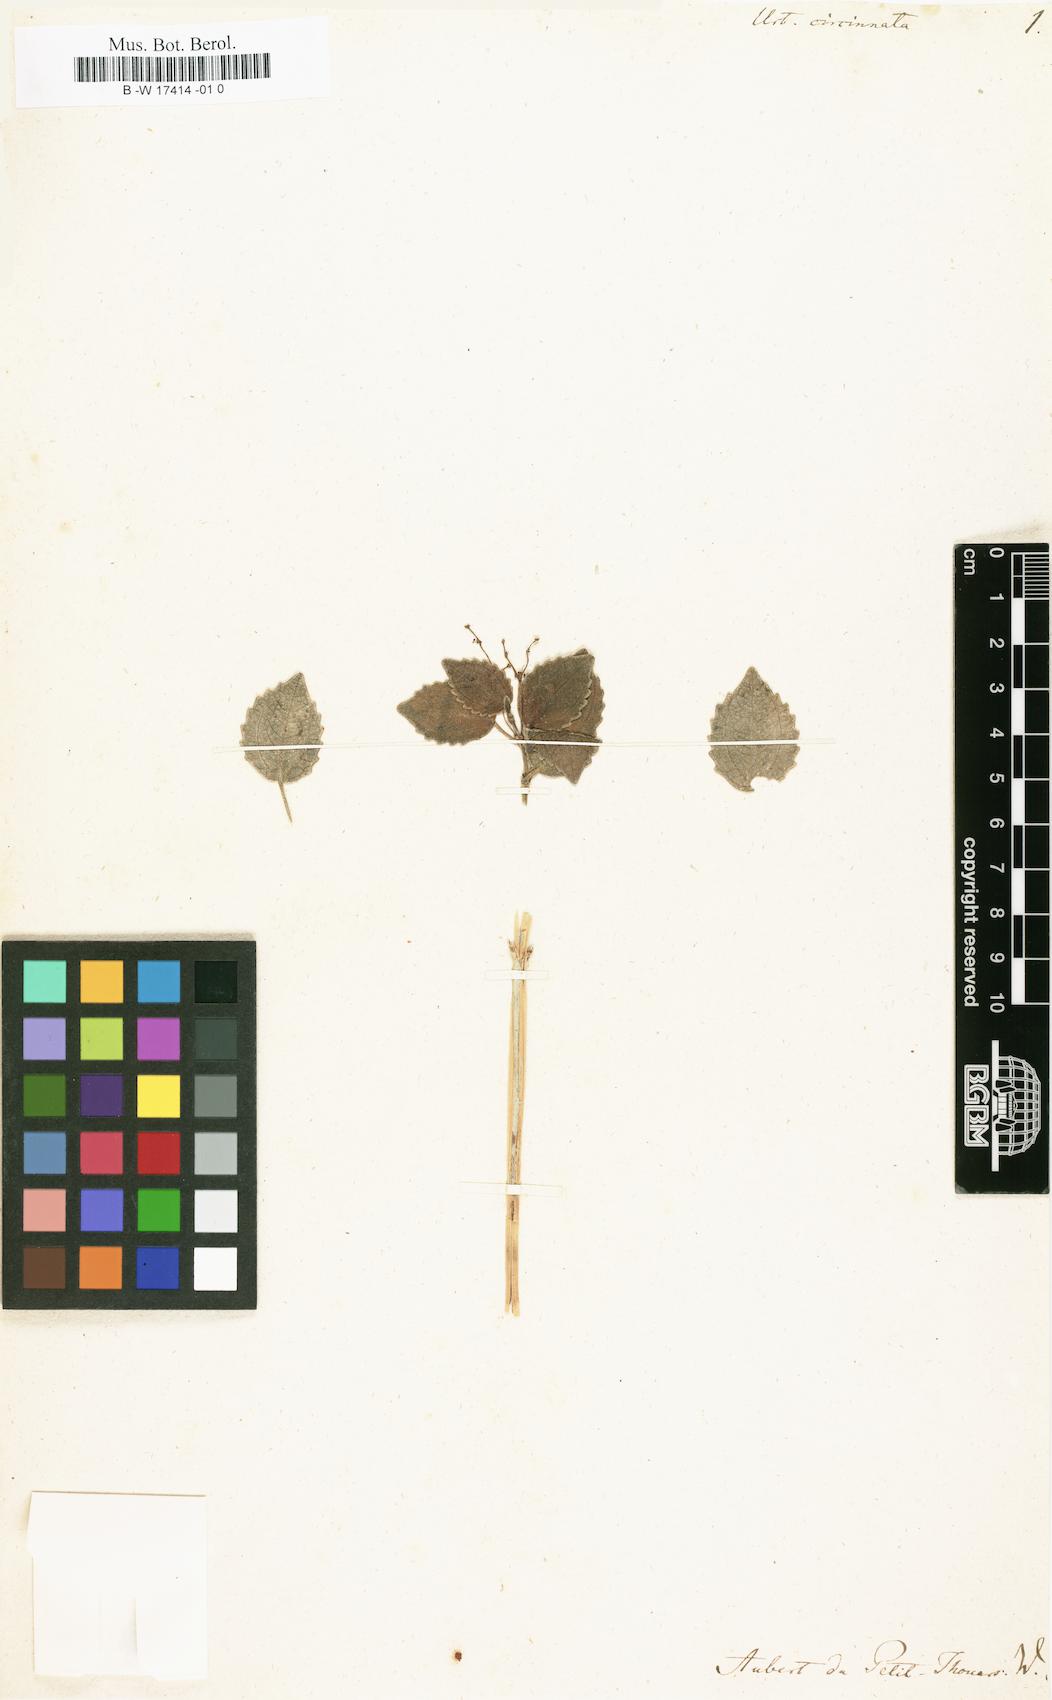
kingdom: Plantae
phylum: Tracheophyta
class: Magnoliopsida
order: Rosales
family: Urticaceae
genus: Scepocarpus
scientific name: Scepocarpus acuminatus
